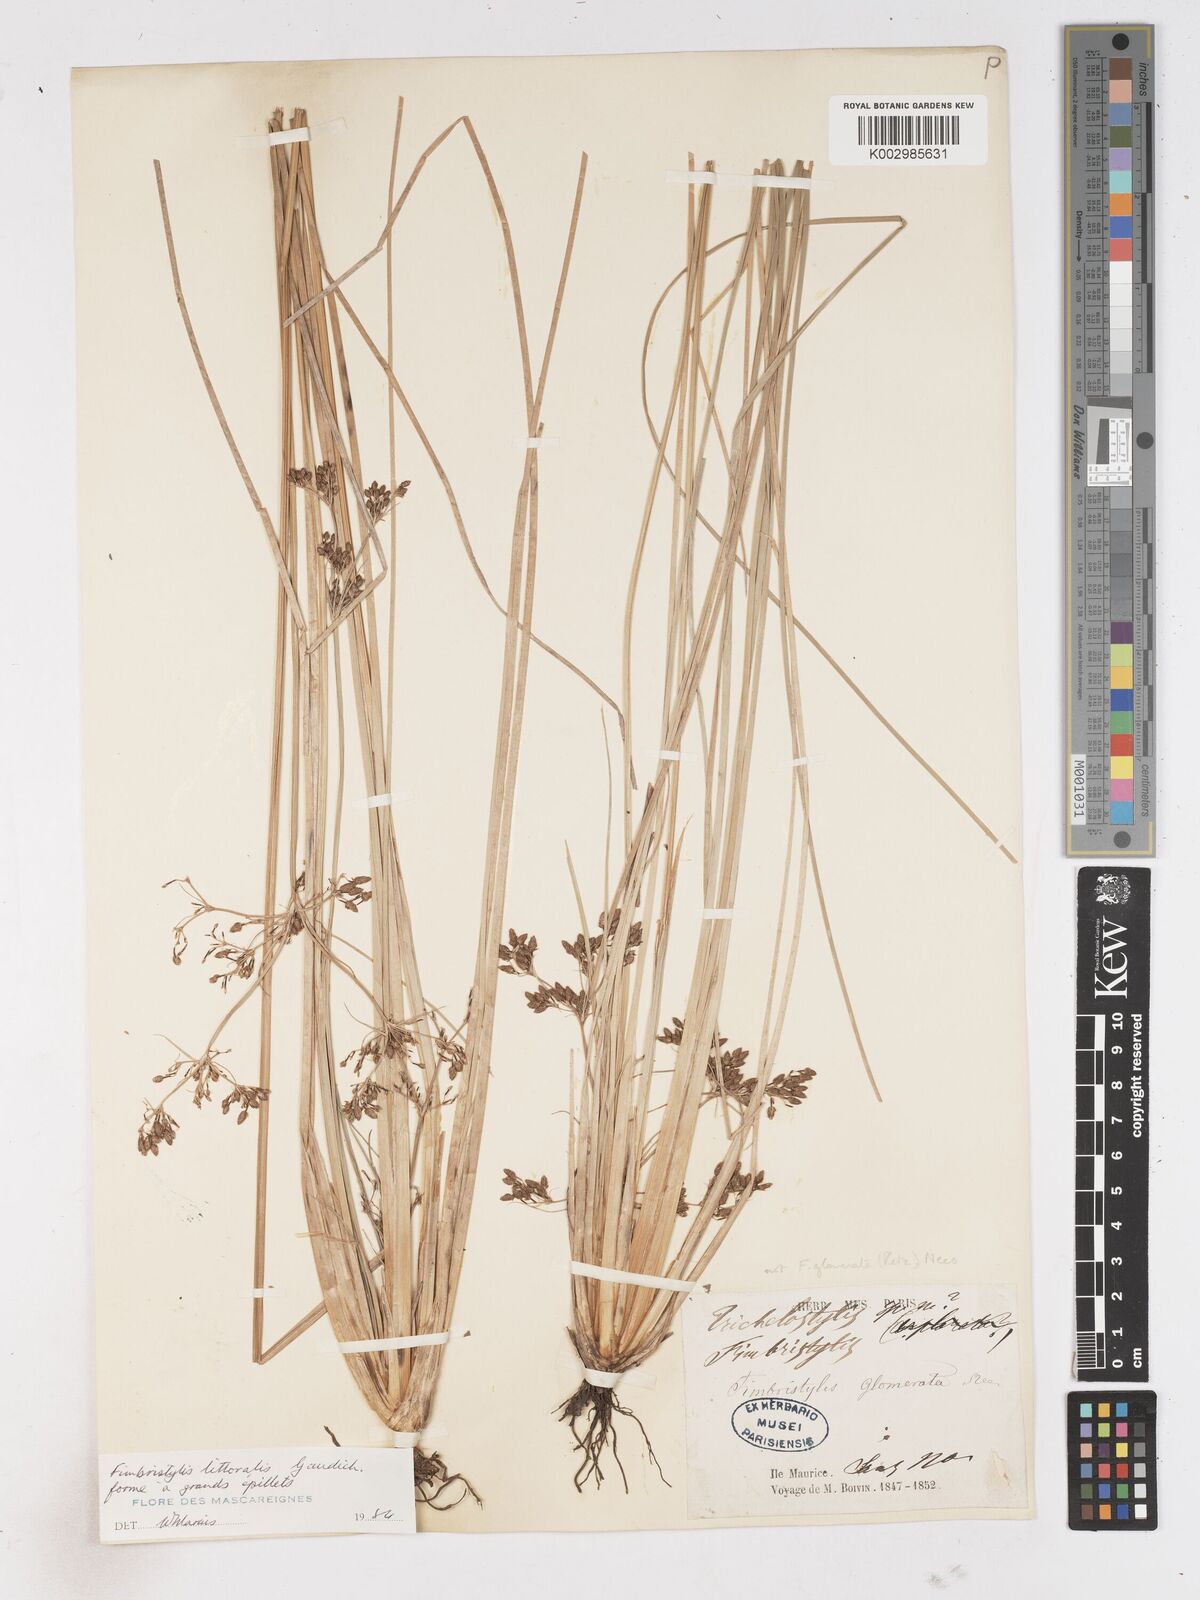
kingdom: Plantae
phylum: Tracheophyta
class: Liliopsida
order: Poales
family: Cyperaceae
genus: Fimbristylis
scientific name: Fimbristylis littoralis
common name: Fimbry
